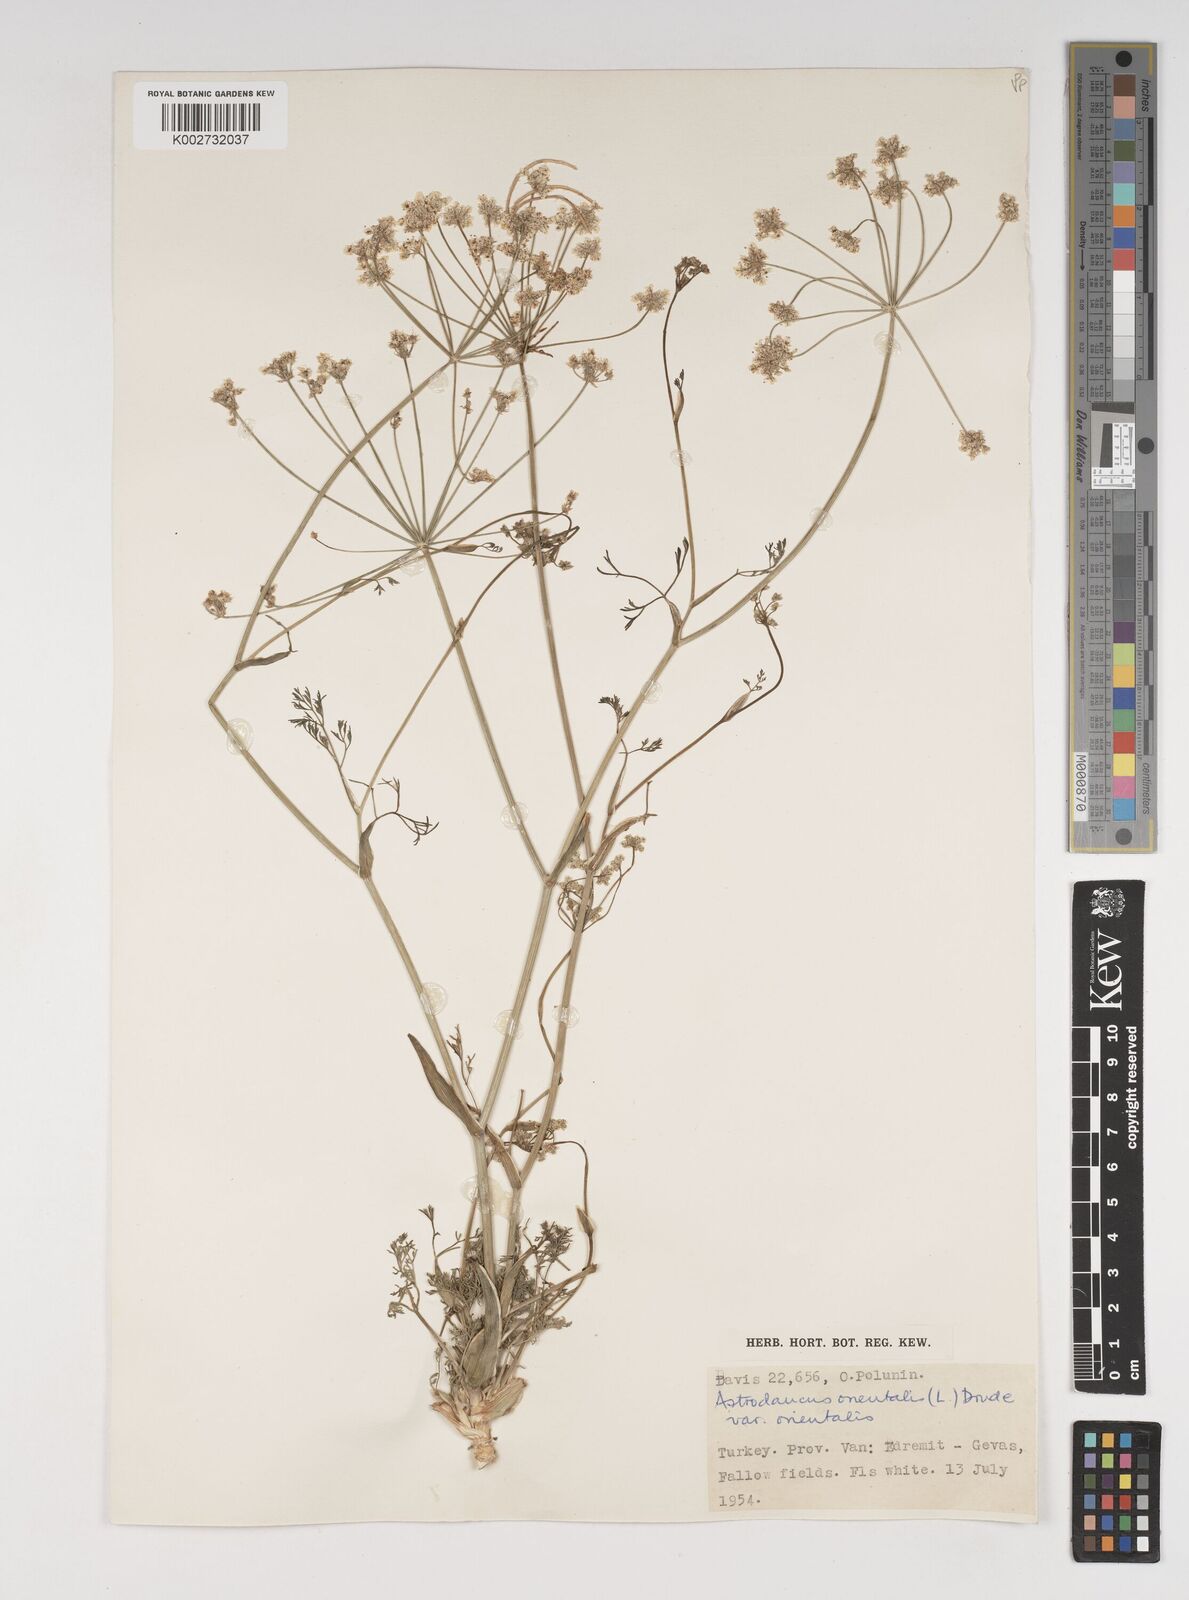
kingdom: Plantae
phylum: Tracheophyta
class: Magnoliopsida
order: Apiales
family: Apiaceae
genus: Astrodaucus
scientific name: Astrodaucus
